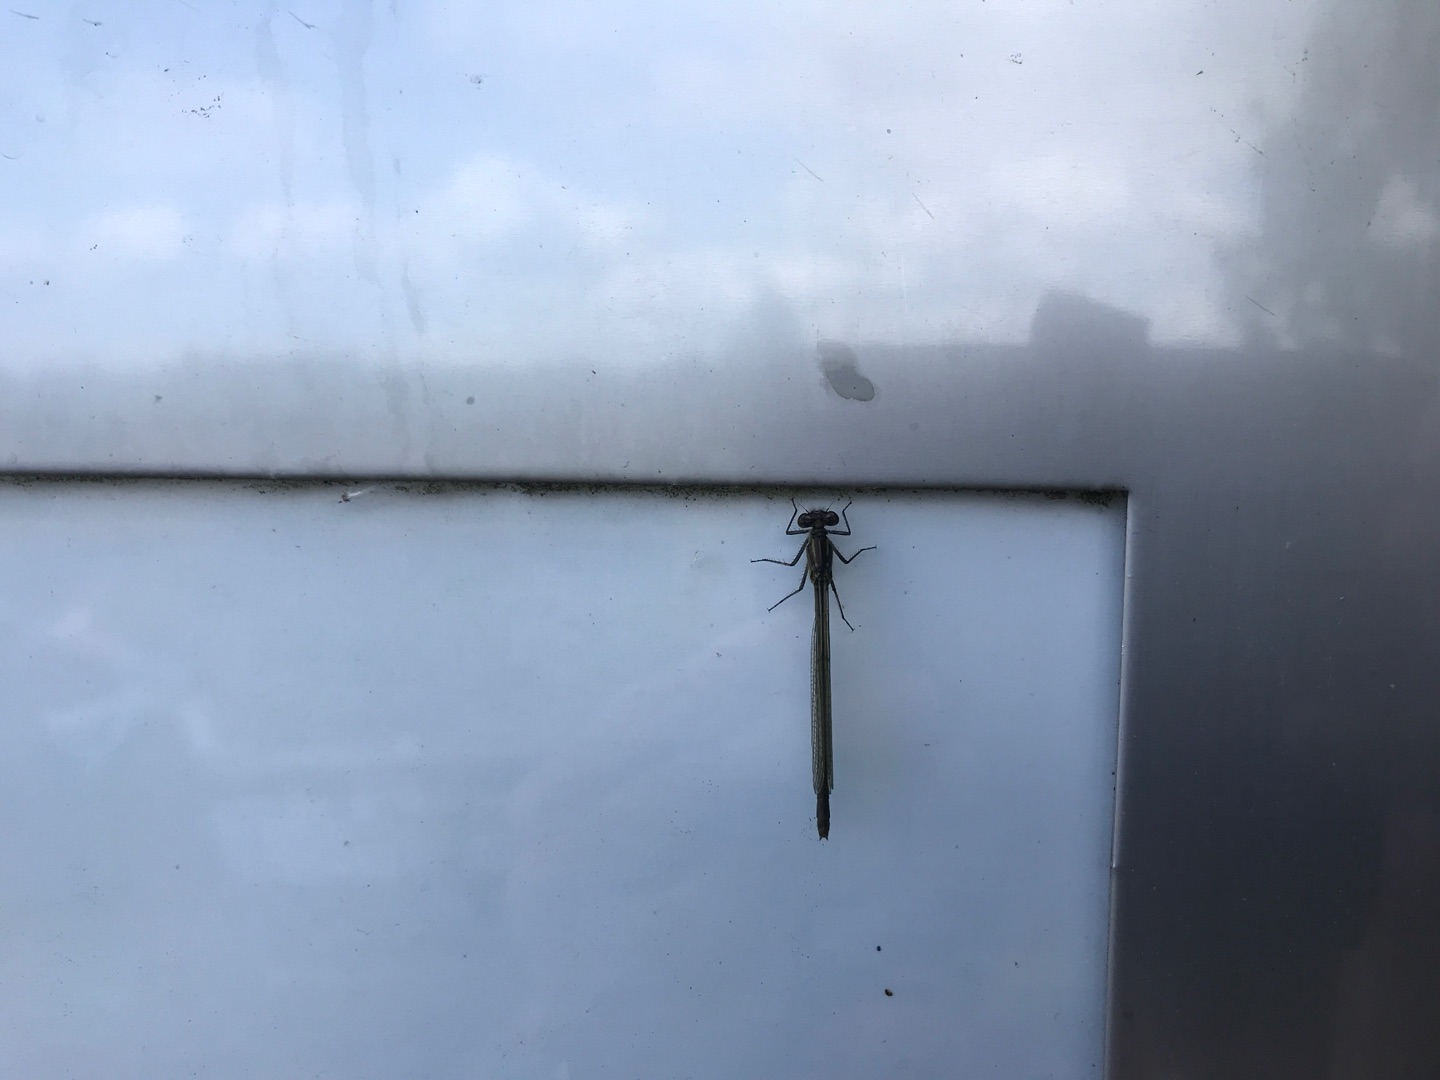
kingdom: Animalia
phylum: Arthropoda
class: Insecta
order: Odonata
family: Coenagrionidae
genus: Erythromma
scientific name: Erythromma najas
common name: Rødøjet vandnymfe
